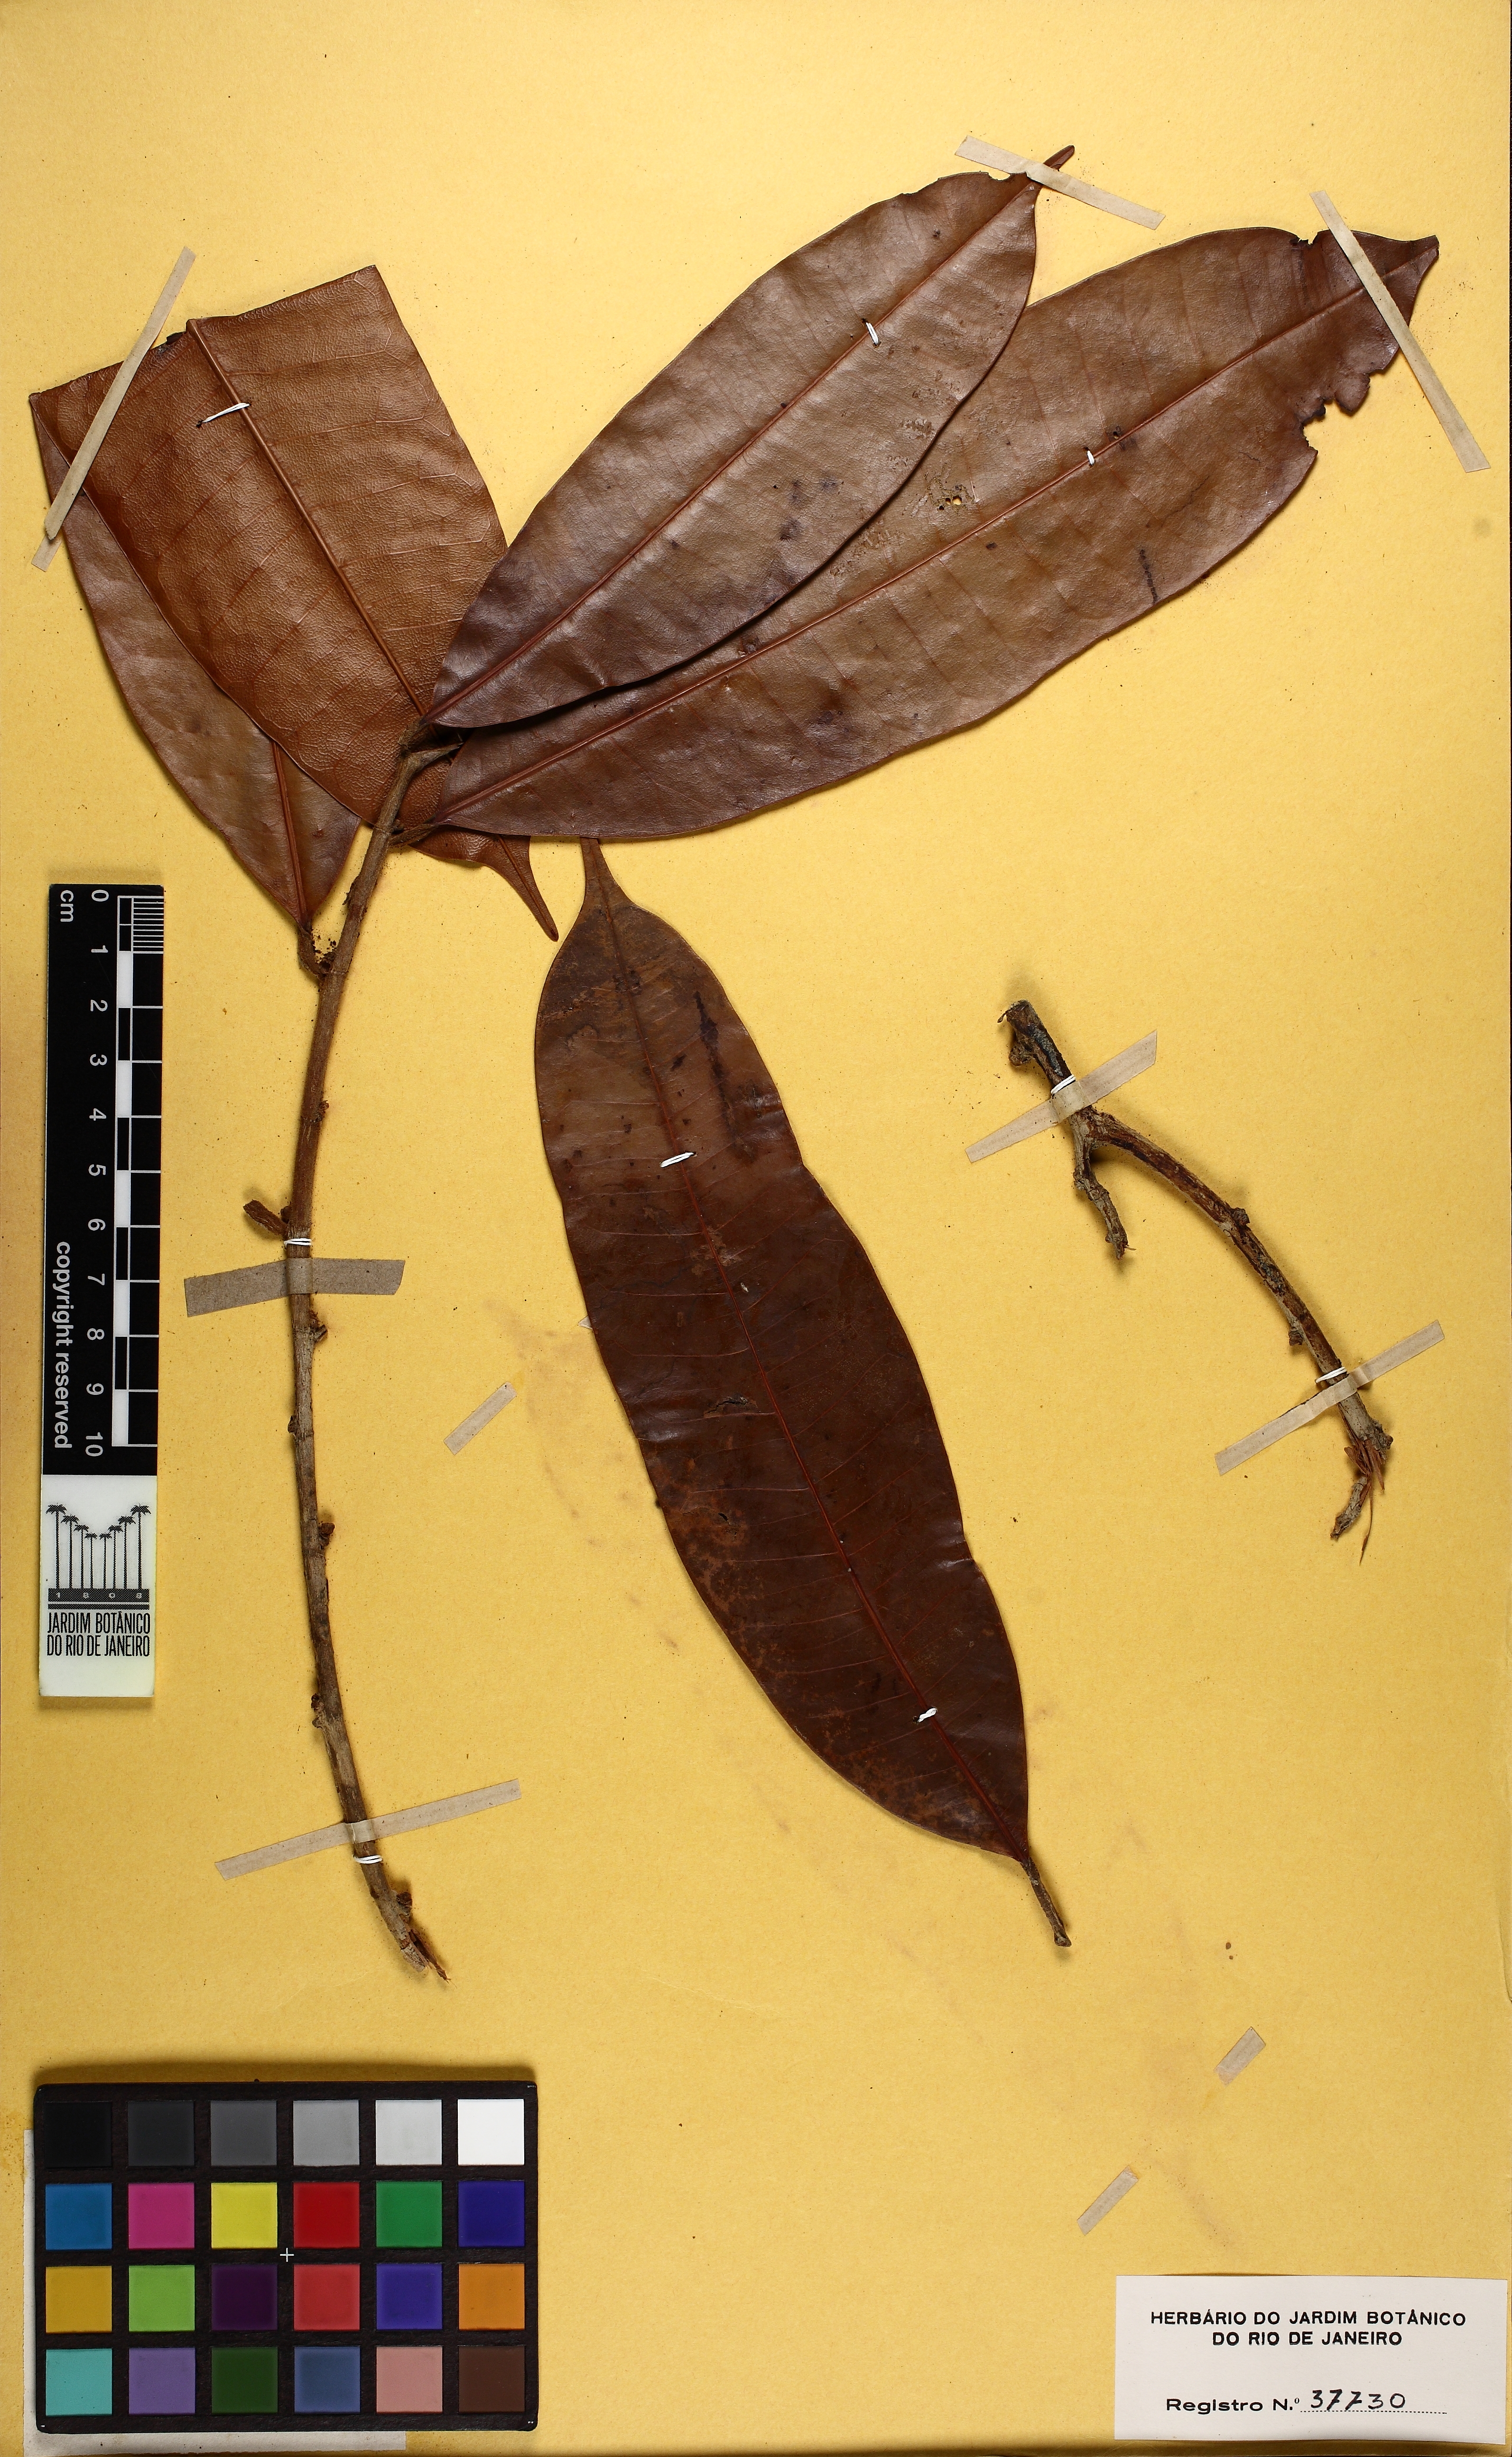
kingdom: Plantae
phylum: Tracheophyta
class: Magnoliopsida
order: Rosales
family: Moraceae
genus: Naucleopsis
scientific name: Naucleopsis caloneura
